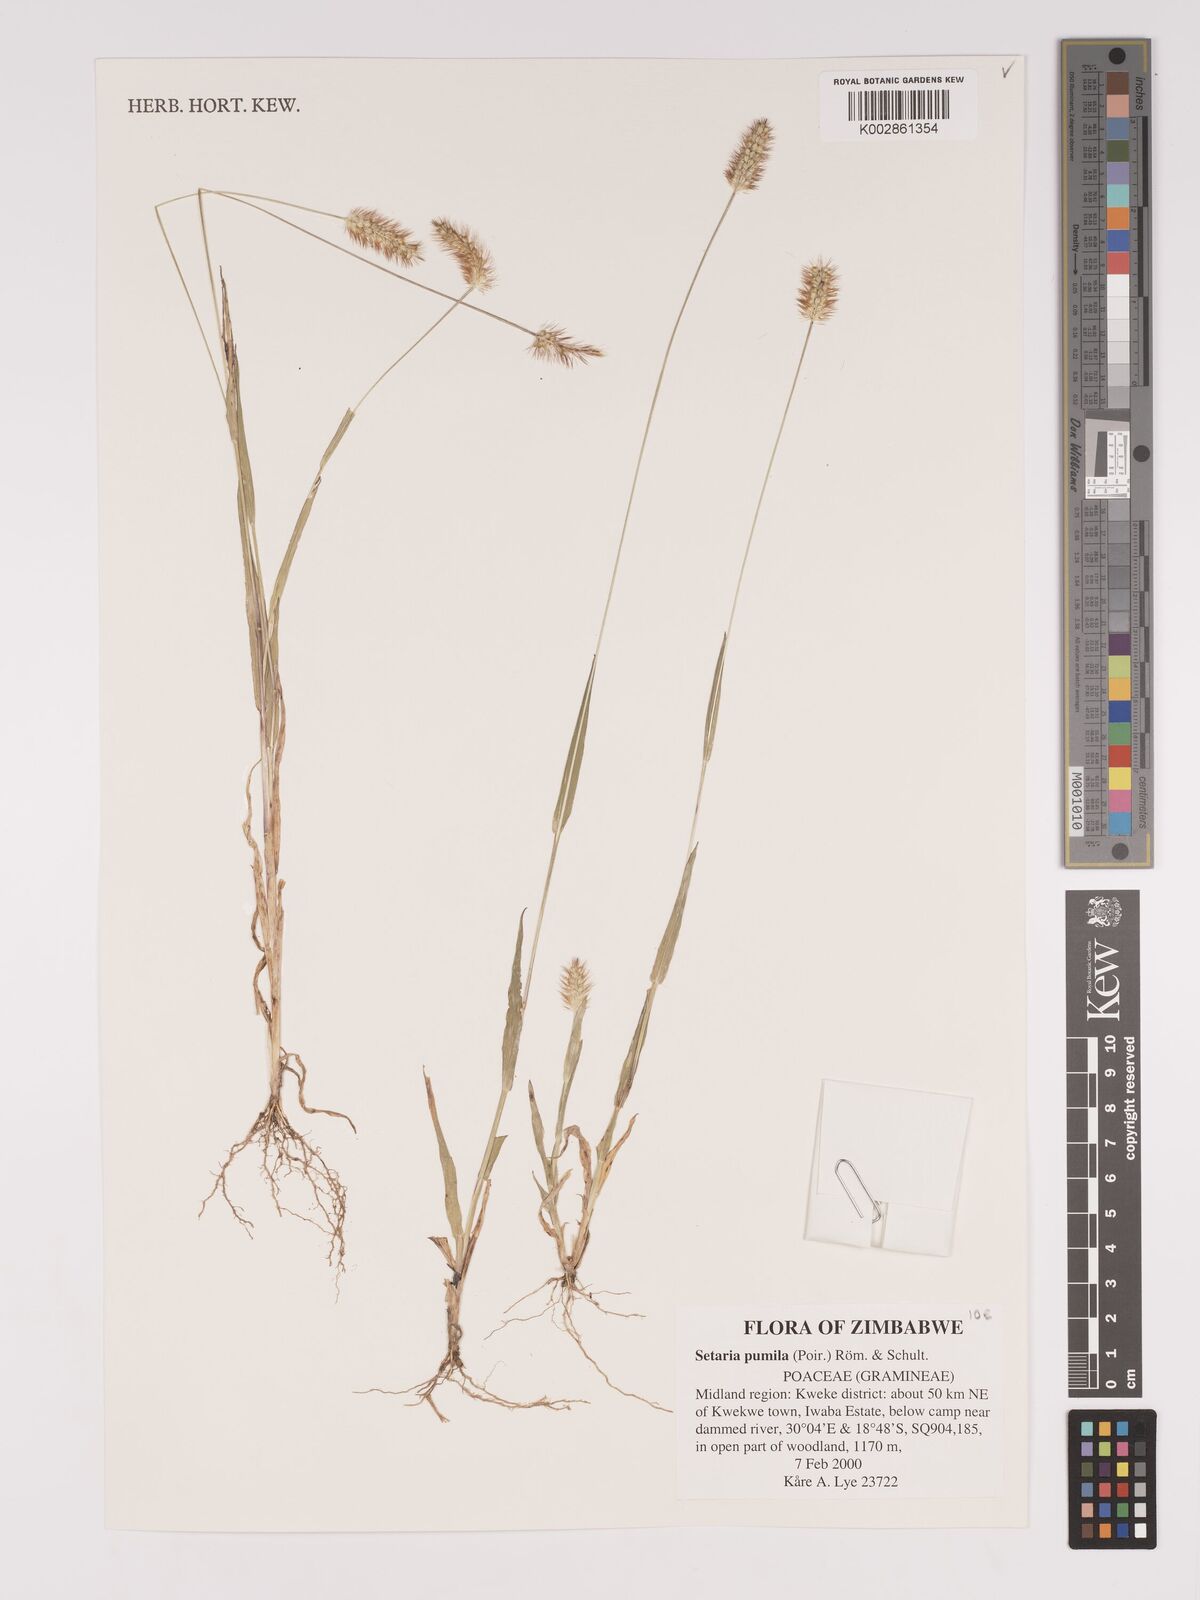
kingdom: Plantae
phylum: Tracheophyta
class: Liliopsida
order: Poales
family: Poaceae
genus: Setaria
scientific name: Setaria pumila
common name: Yellow bristle-grass
